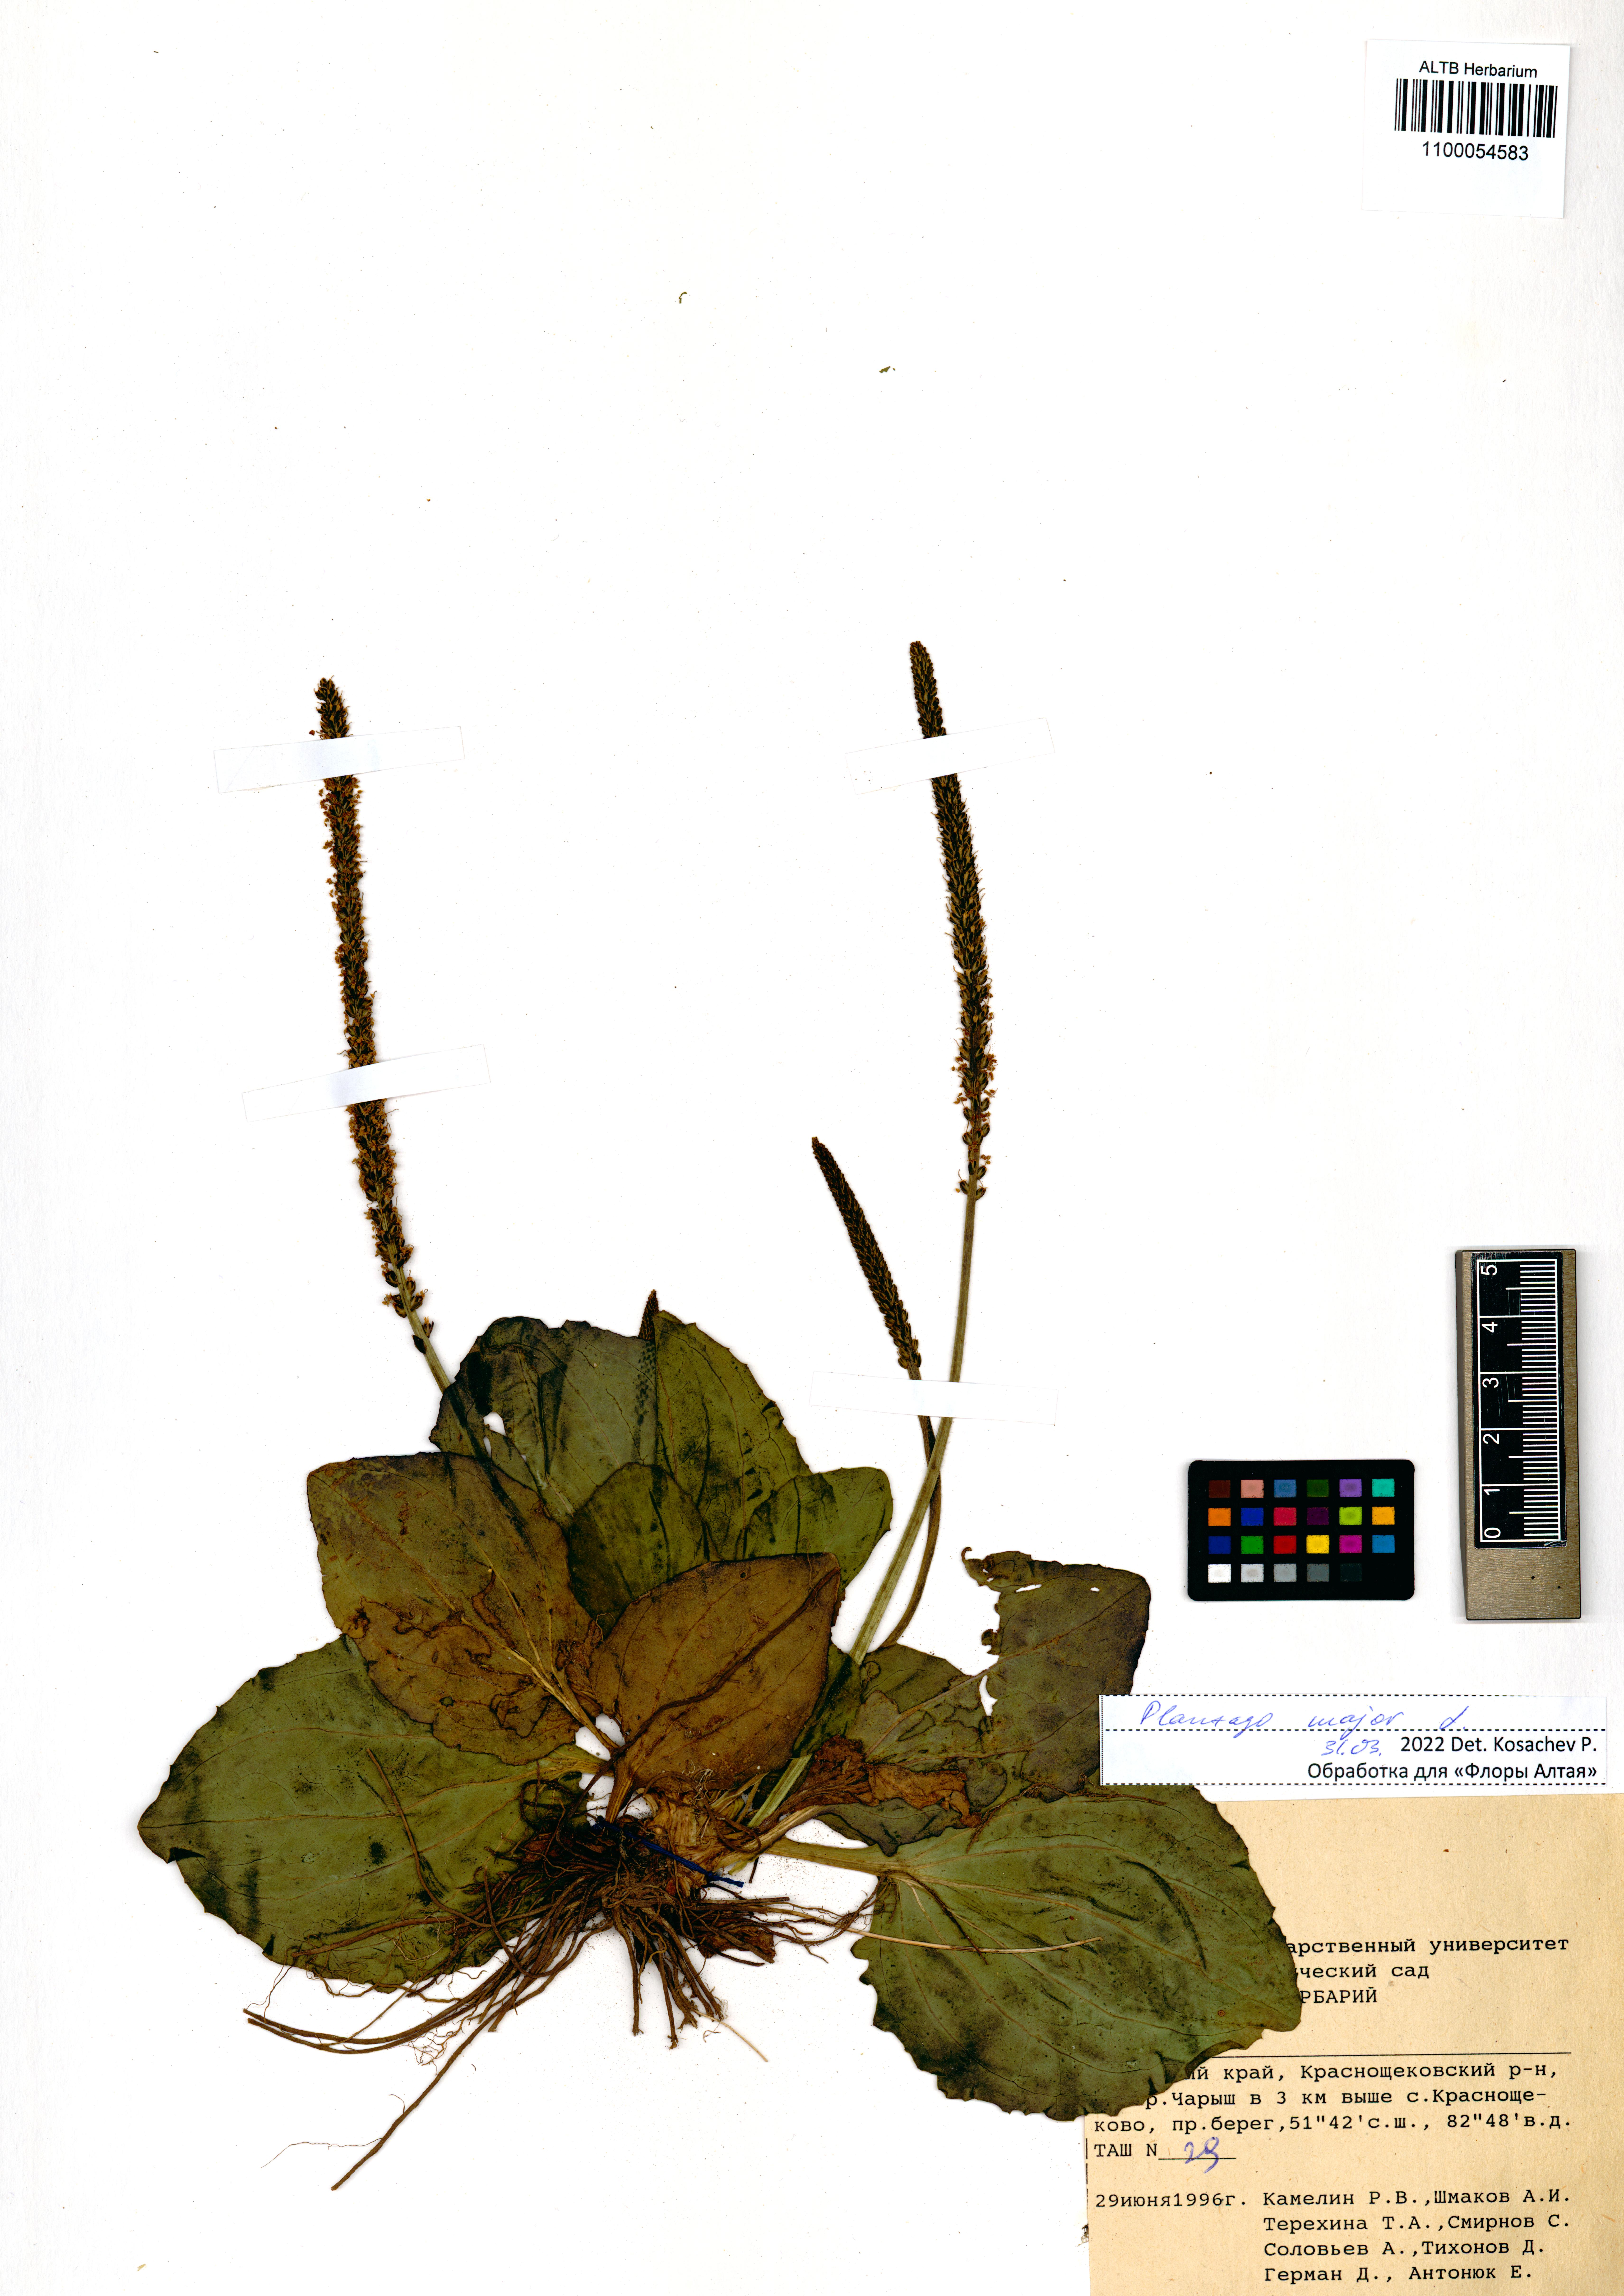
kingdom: Plantae
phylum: Tracheophyta
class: Magnoliopsida
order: Lamiales
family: Plantaginaceae
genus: Plantago
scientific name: Plantago major
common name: Common plantain
